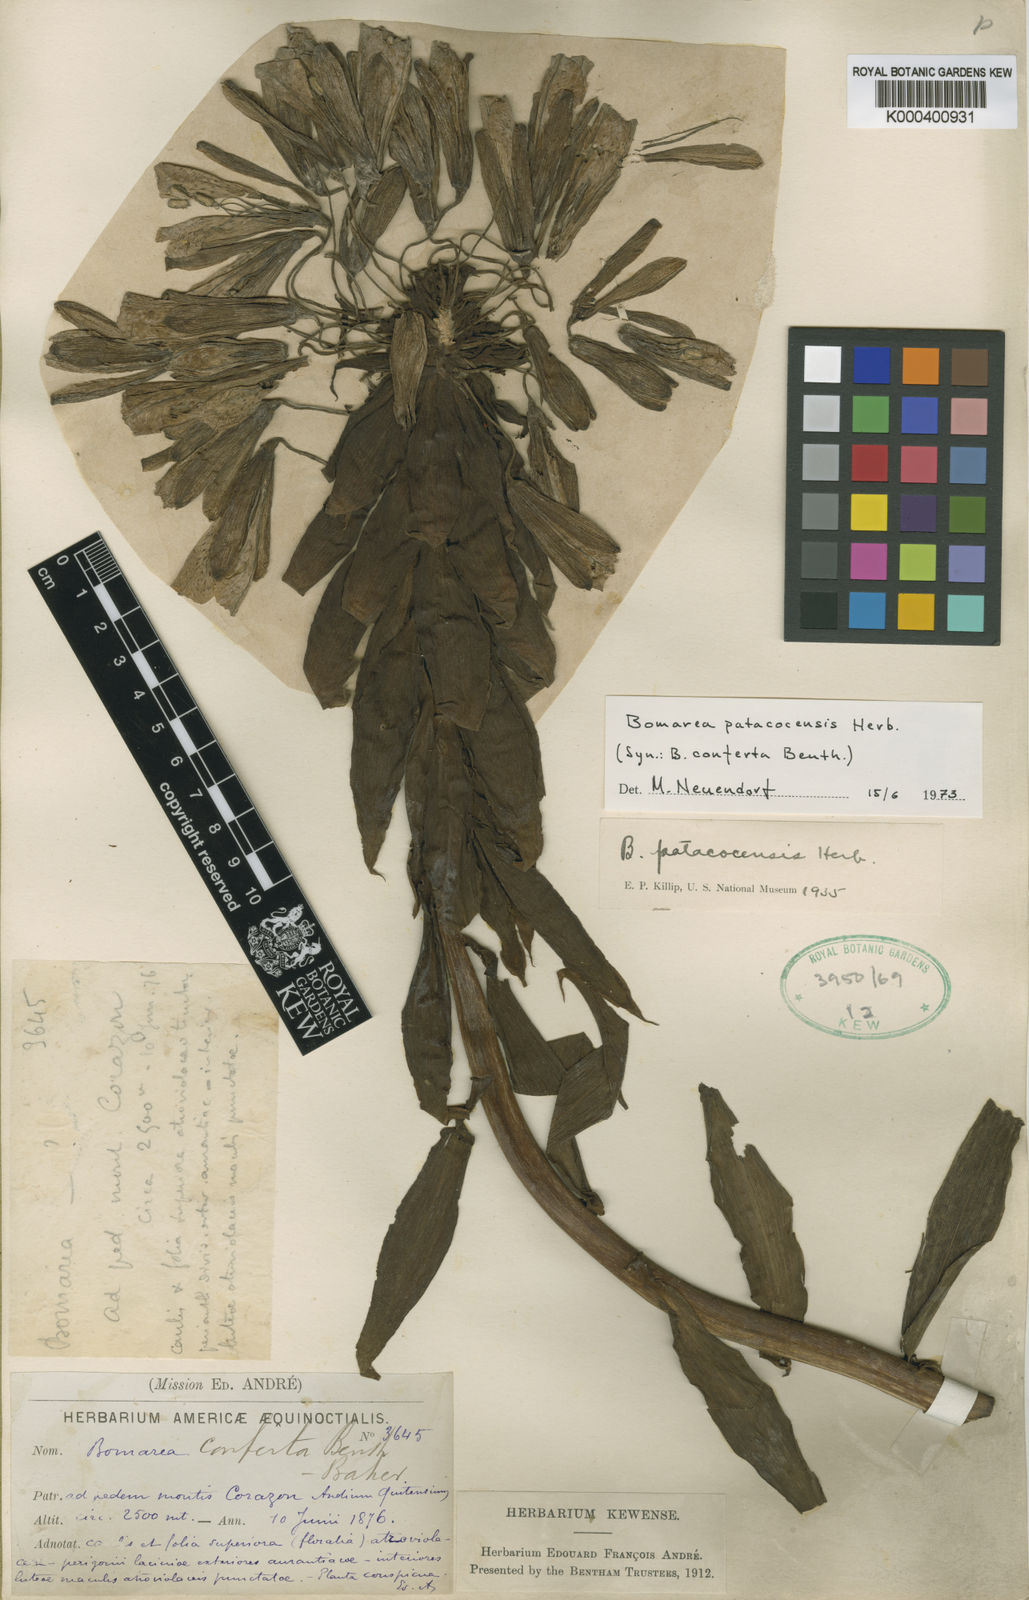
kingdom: Plantae
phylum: Tracheophyta
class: Liliopsida
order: Liliales
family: Alstroemeriaceae
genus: Bomarea
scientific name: Bomarea patacocensis
